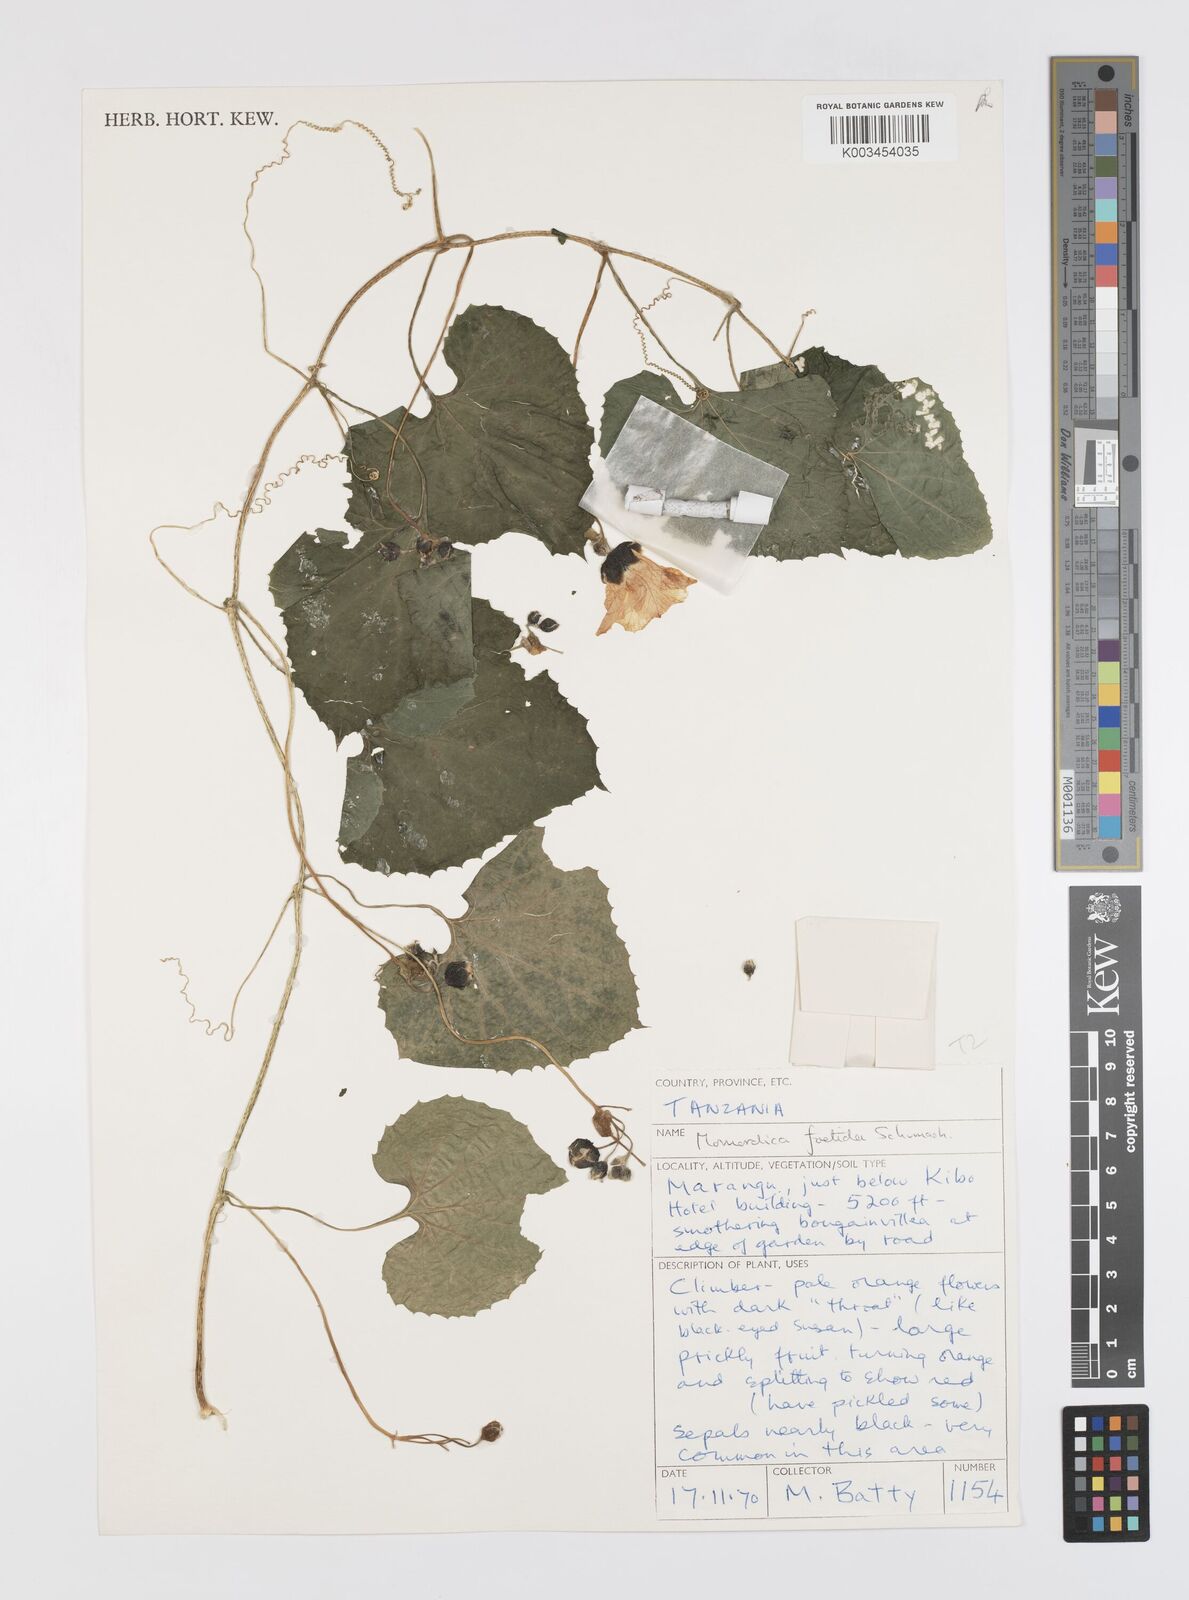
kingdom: Plantae
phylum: Tracheophyta
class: Magnoliopsida
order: Cucurbitales
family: Cucurbitaceae
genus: Momordica
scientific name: Momordica foetida
